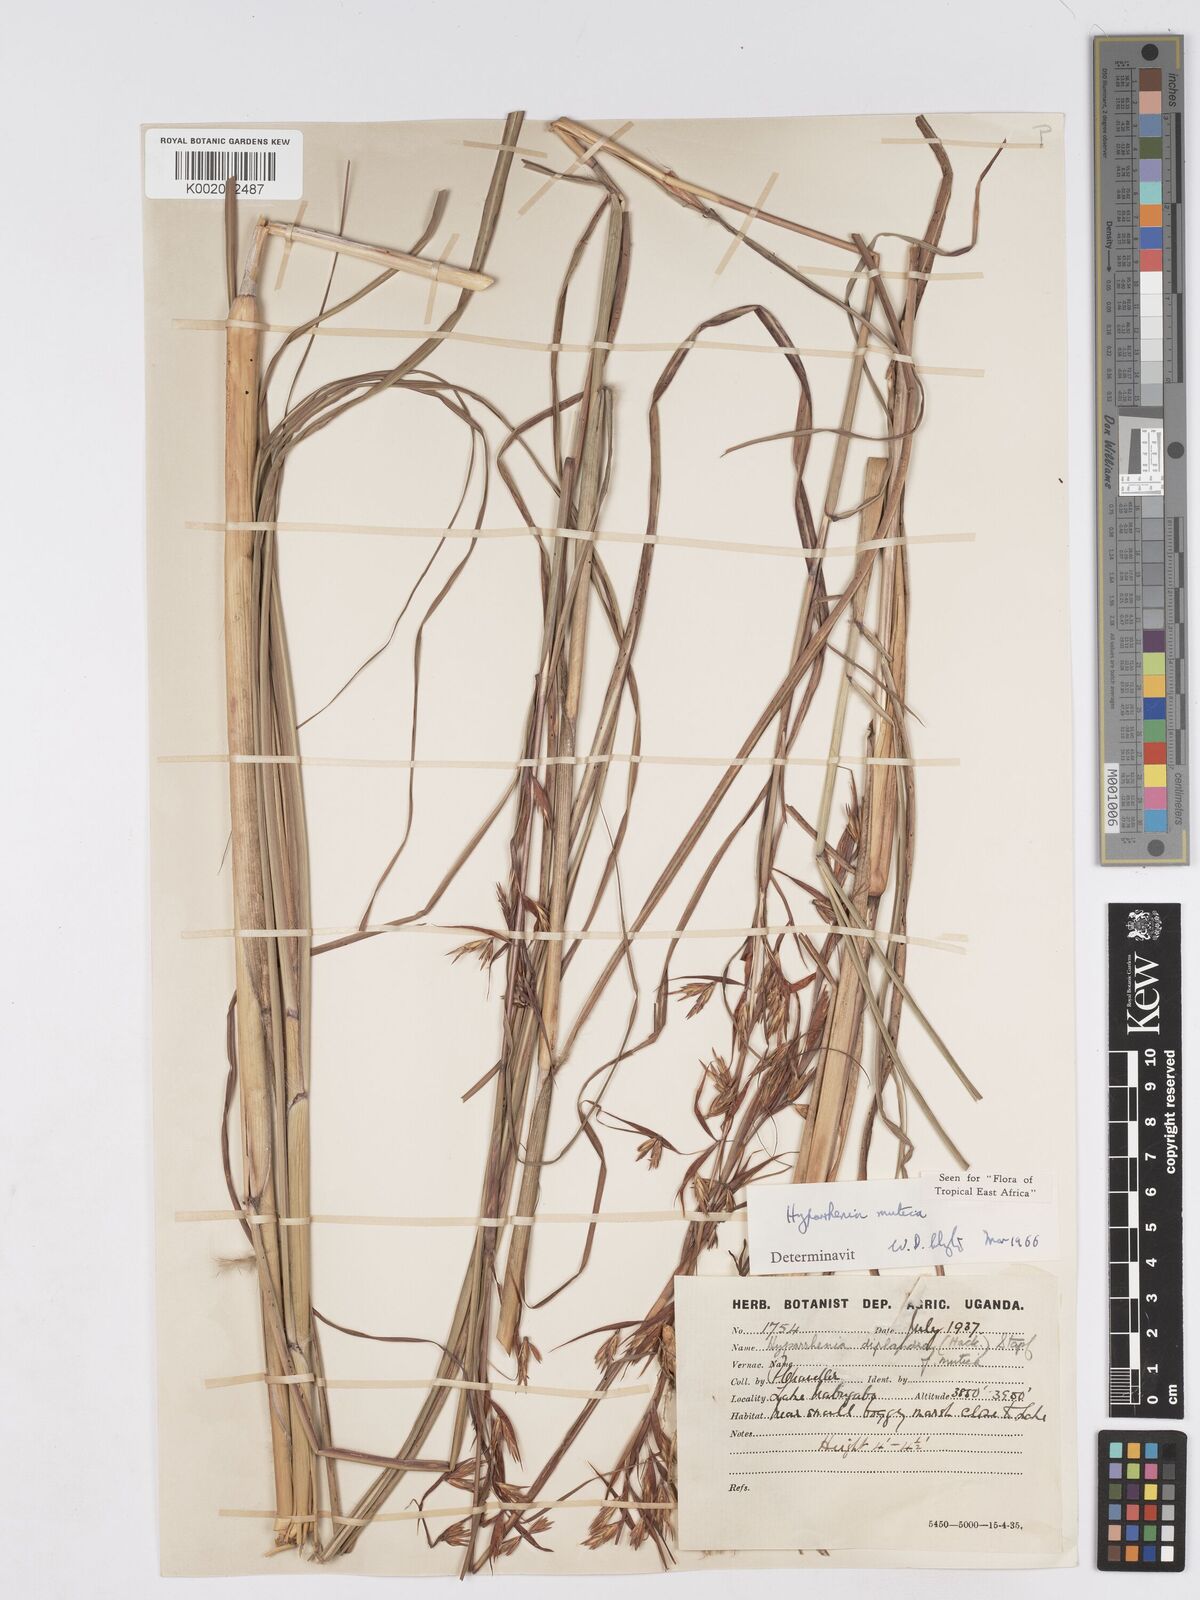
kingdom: Plantae
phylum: Tracheophyta
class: Liliopsida
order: Poales
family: Poaceae
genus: Hyparrhenia
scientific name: Hyparrhenia diplandra
